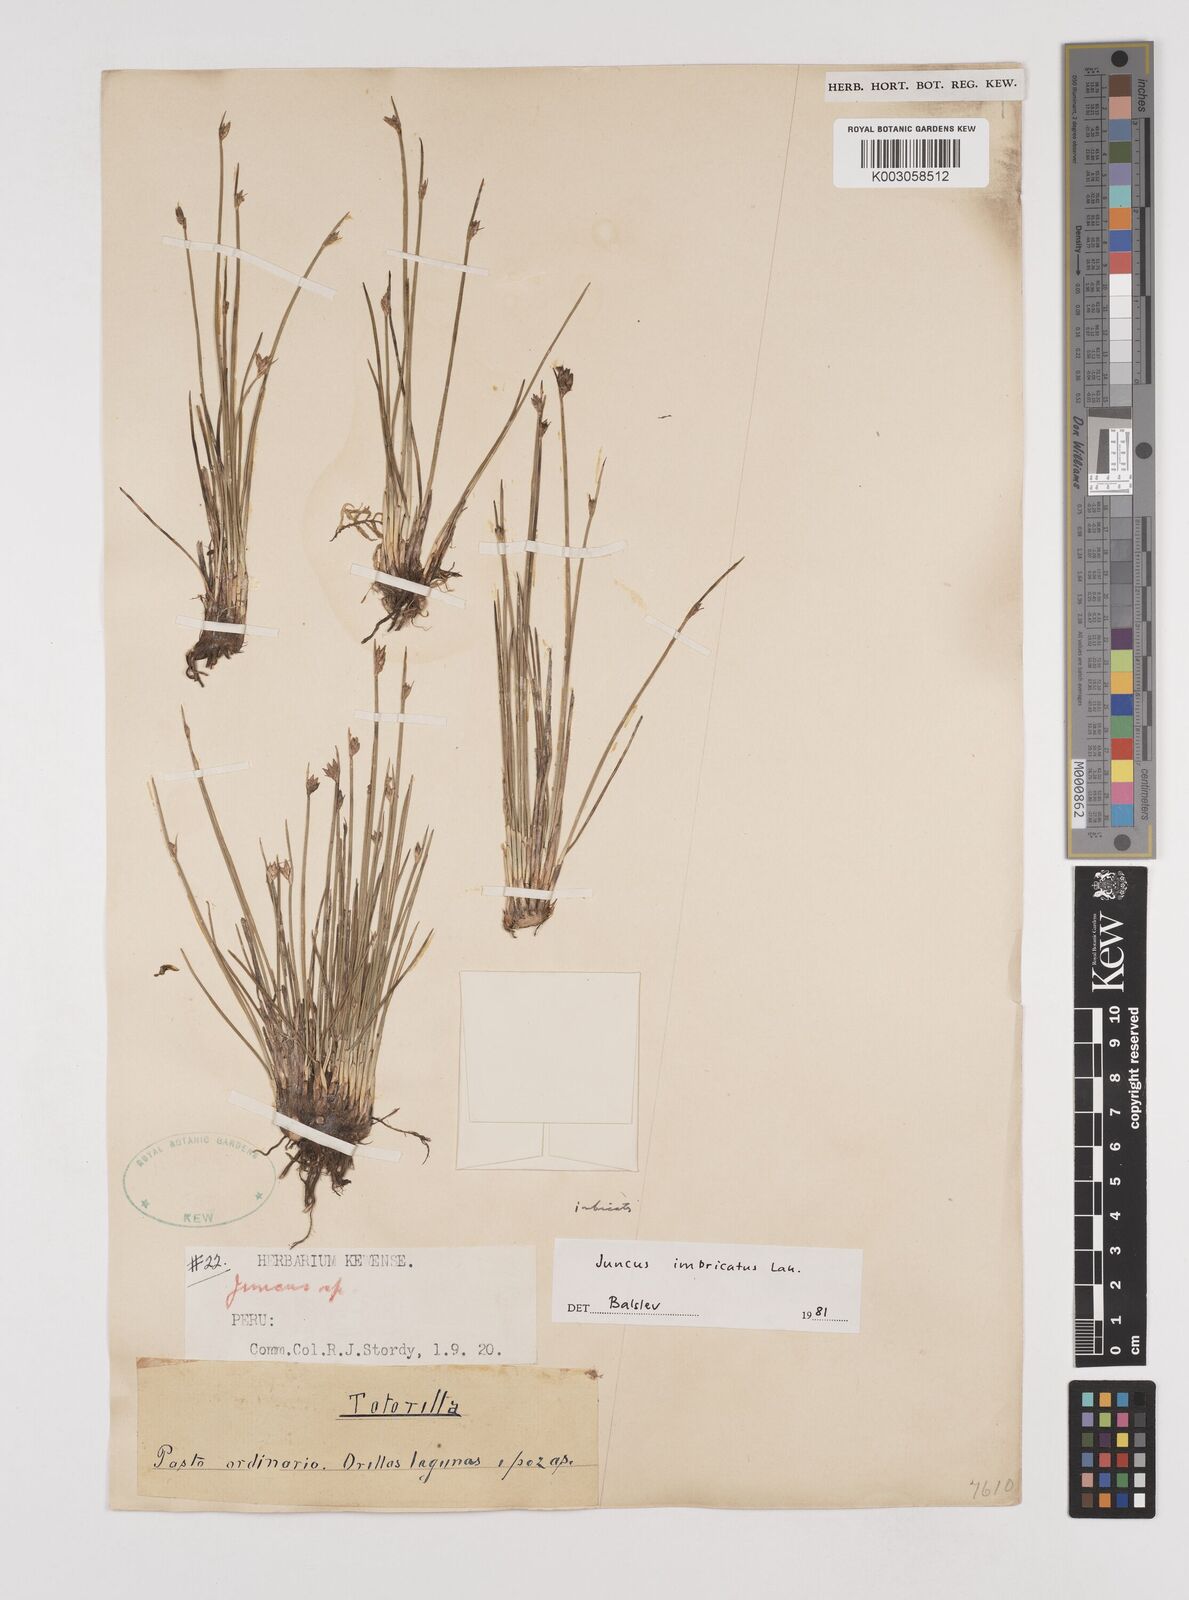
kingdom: Plantae
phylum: Tracheophyta
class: Liliopsida
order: Poales
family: Juncaceae
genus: Juncus
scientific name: Juncus imbricatus
